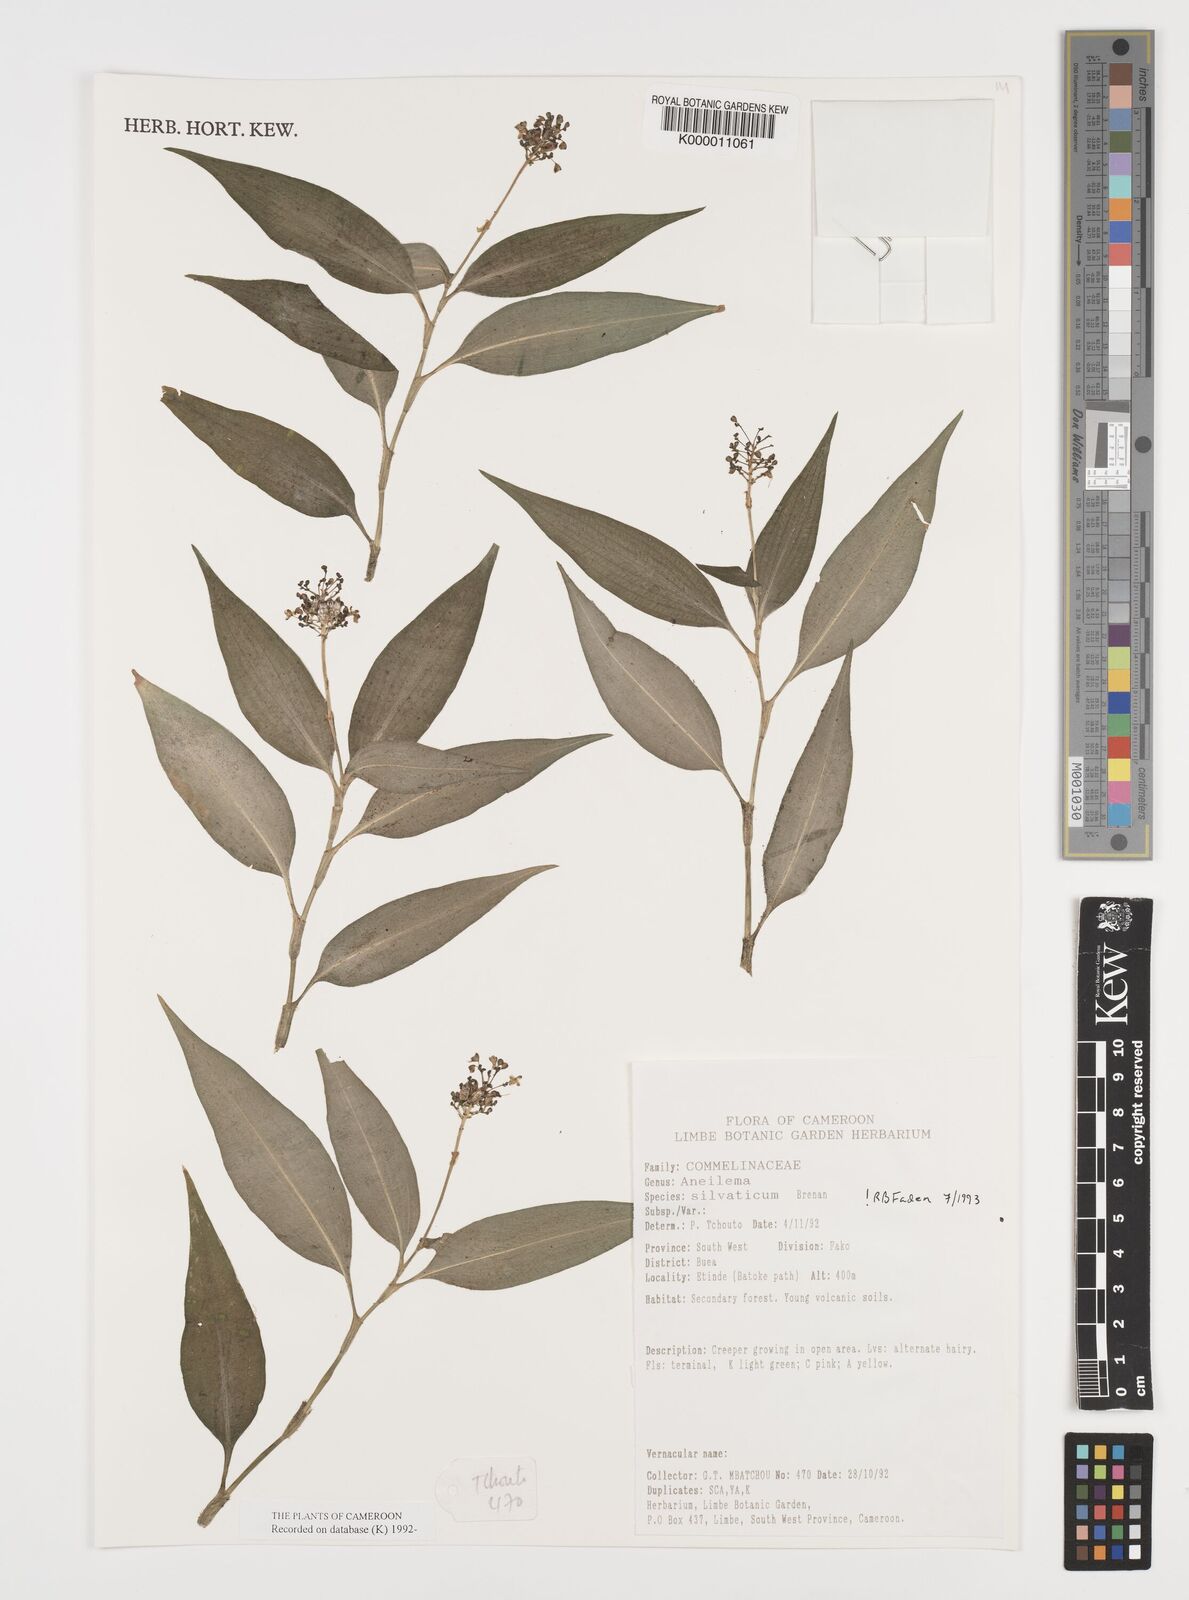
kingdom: Plantae
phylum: Tracheophyta
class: Liliopsida
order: Commelinales
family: Commelinaceae
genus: Aneilema
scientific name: Aneilema silvaticum
